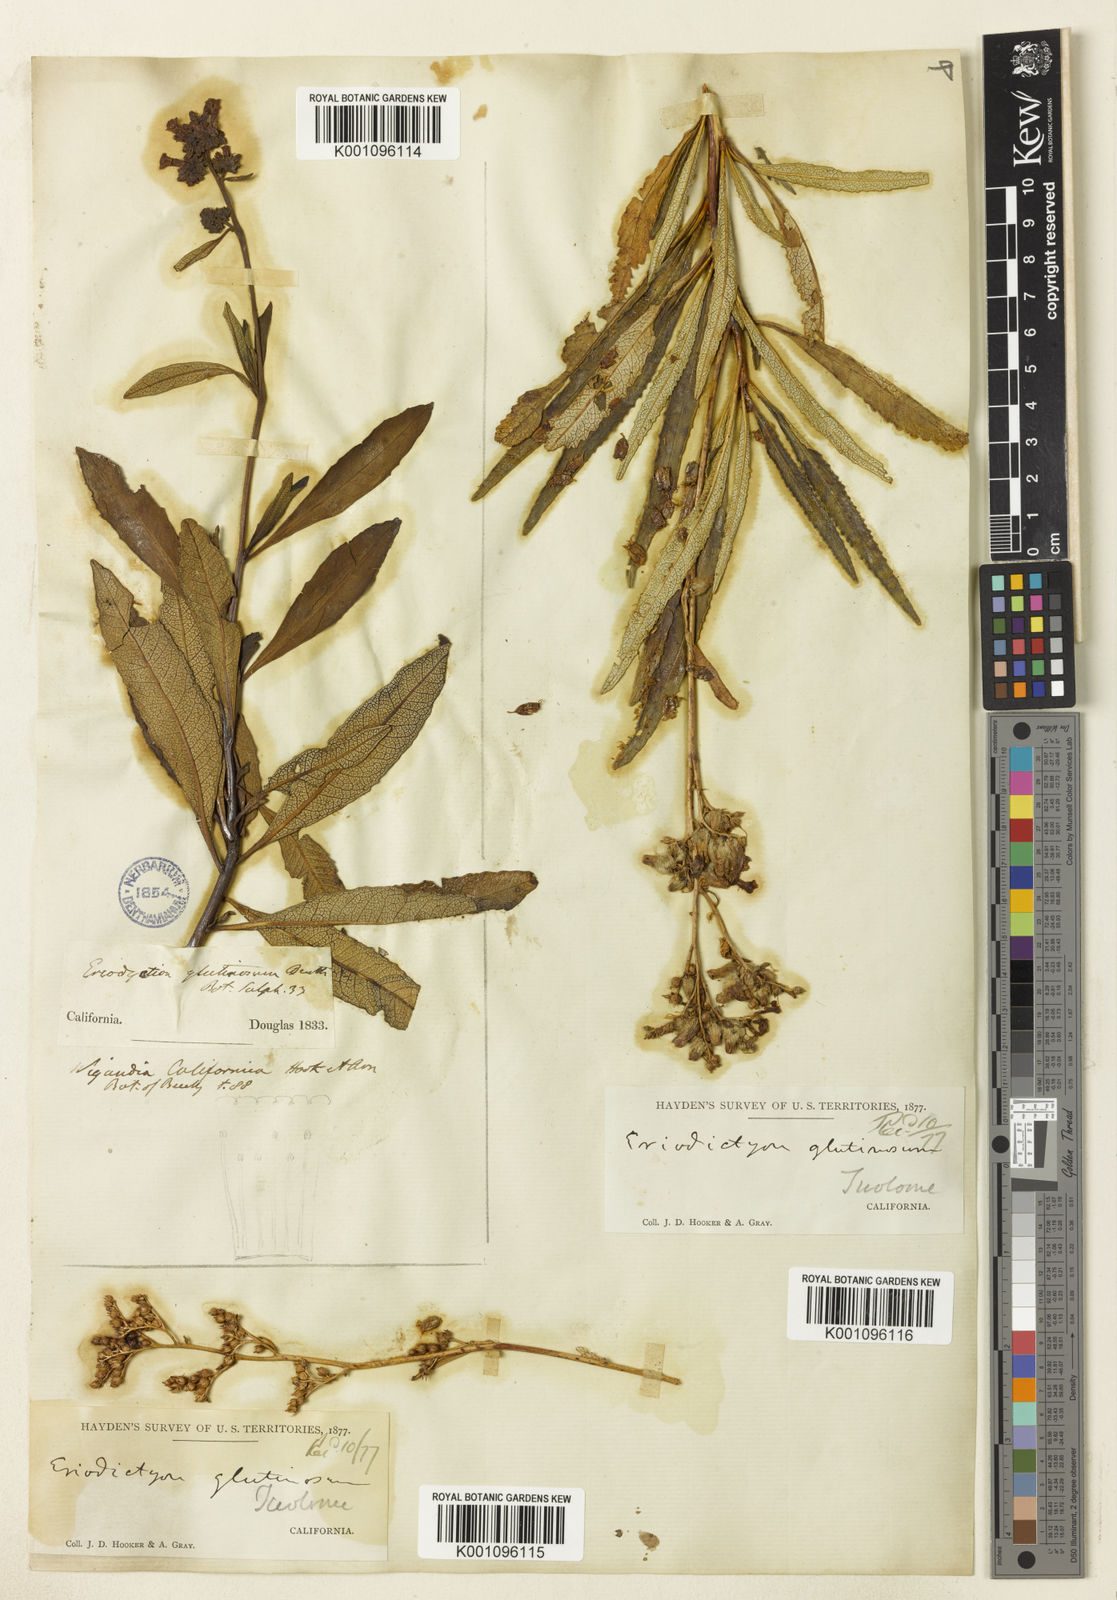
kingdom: Plantae
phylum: Tracheophyta
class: Magnoliopsida
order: Boraginales
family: Namaceae
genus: Eriodictyon
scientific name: Eriodictyon
